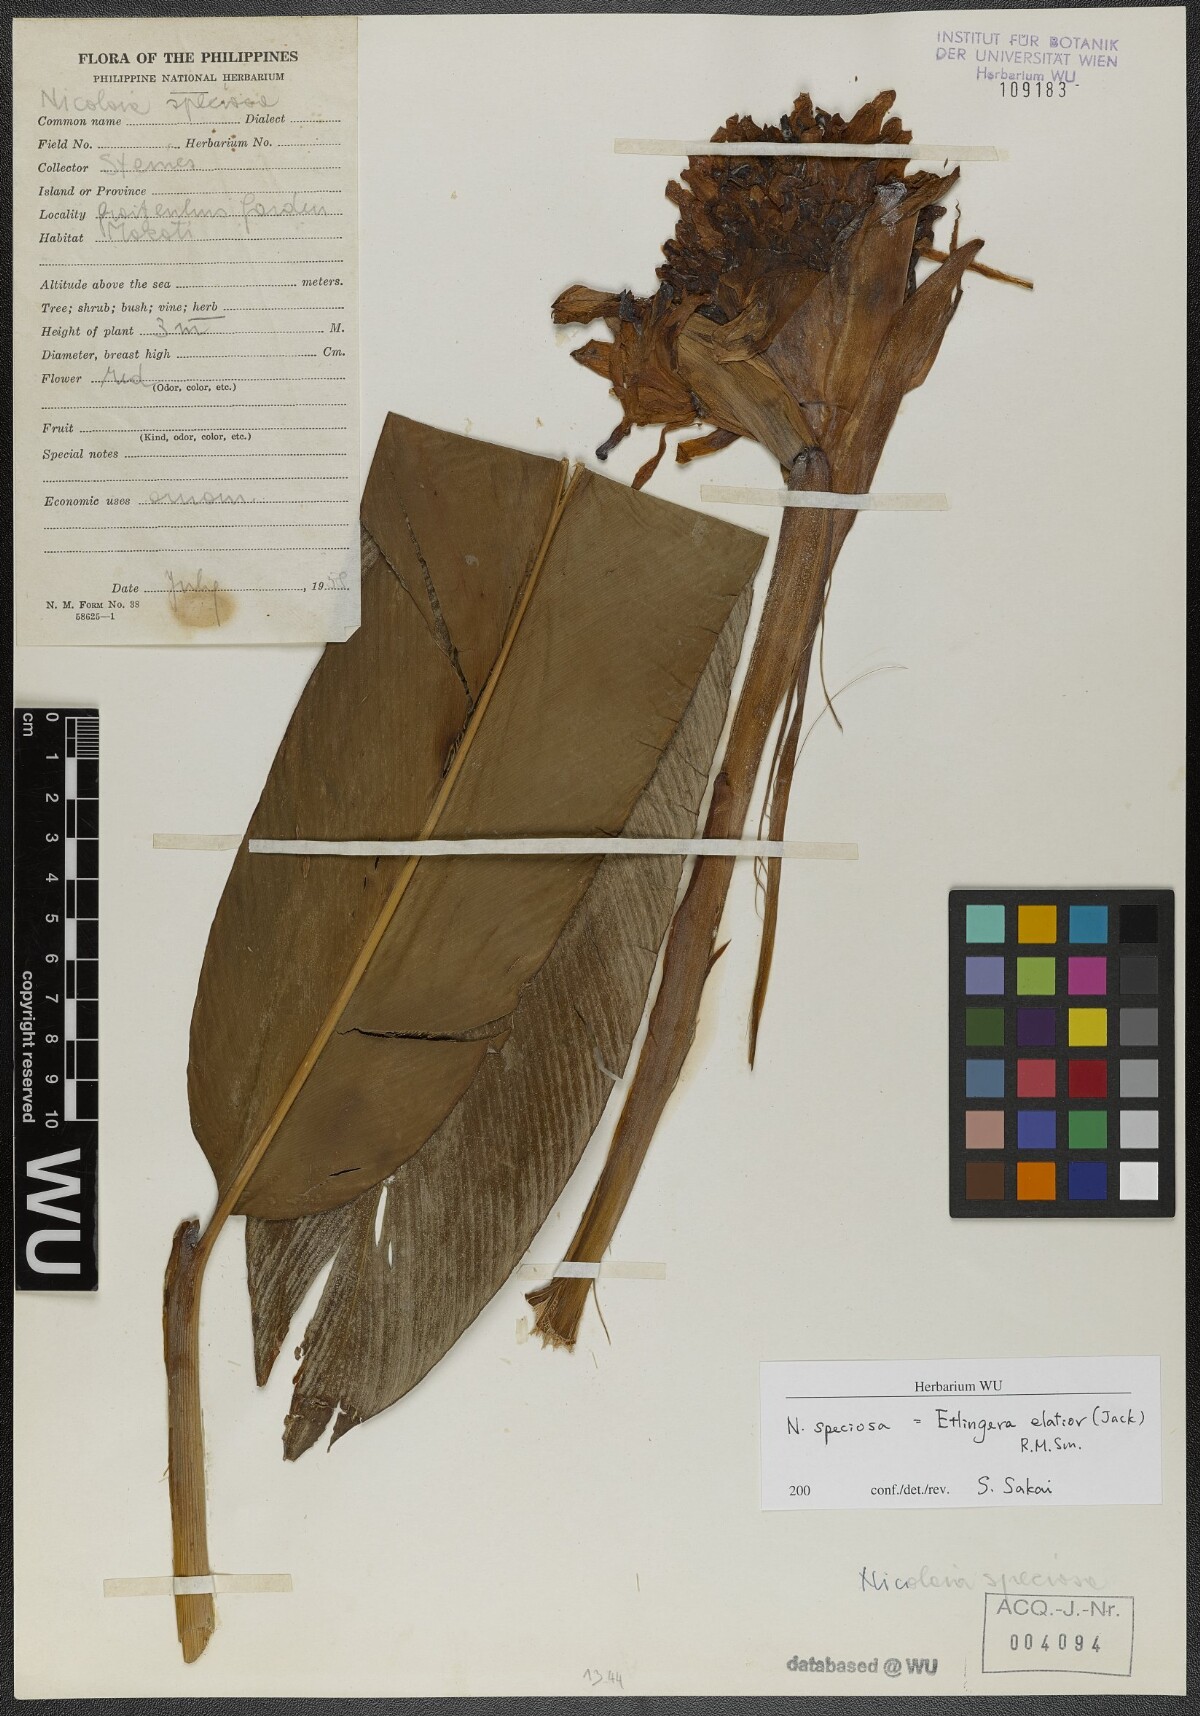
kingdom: Plantae
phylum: Tracheophyta
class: Liliopsida
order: Zingiberales
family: Zingiberaceae
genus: Etlingera
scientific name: Etlingera elatior
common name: Philippine waxflower
